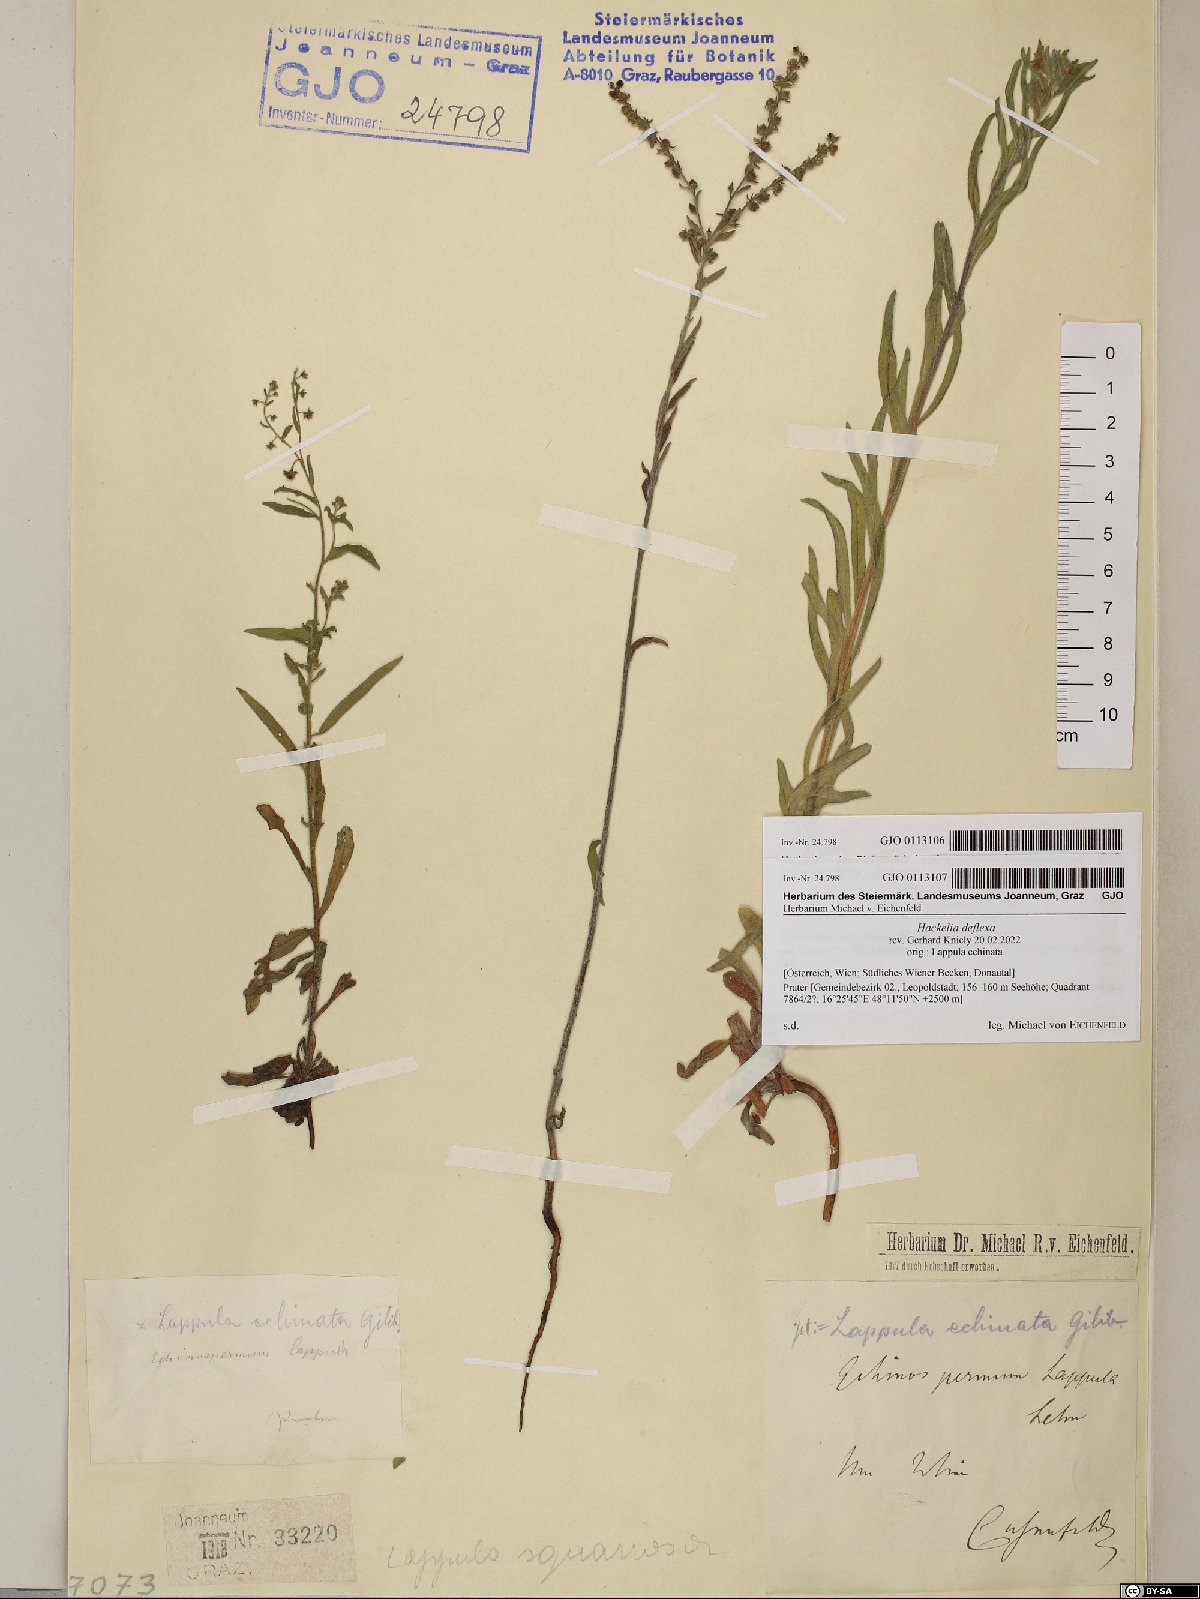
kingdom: Plantae
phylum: Tracheophyta
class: Magnoliopsida
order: Boraginales
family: Boraginaceae
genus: Lappula
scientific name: Lappula squarrosa
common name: European stickseed
